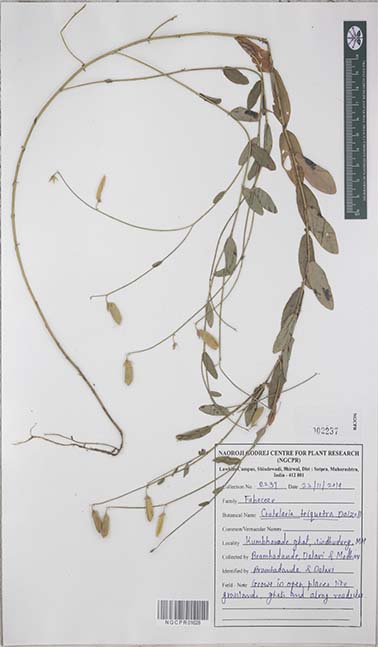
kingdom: Plantae
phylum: Tracheophyta
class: Magnoliopsida
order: Fabales
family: Fabaceae
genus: Crotalaria
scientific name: Crotalaria triquetra
